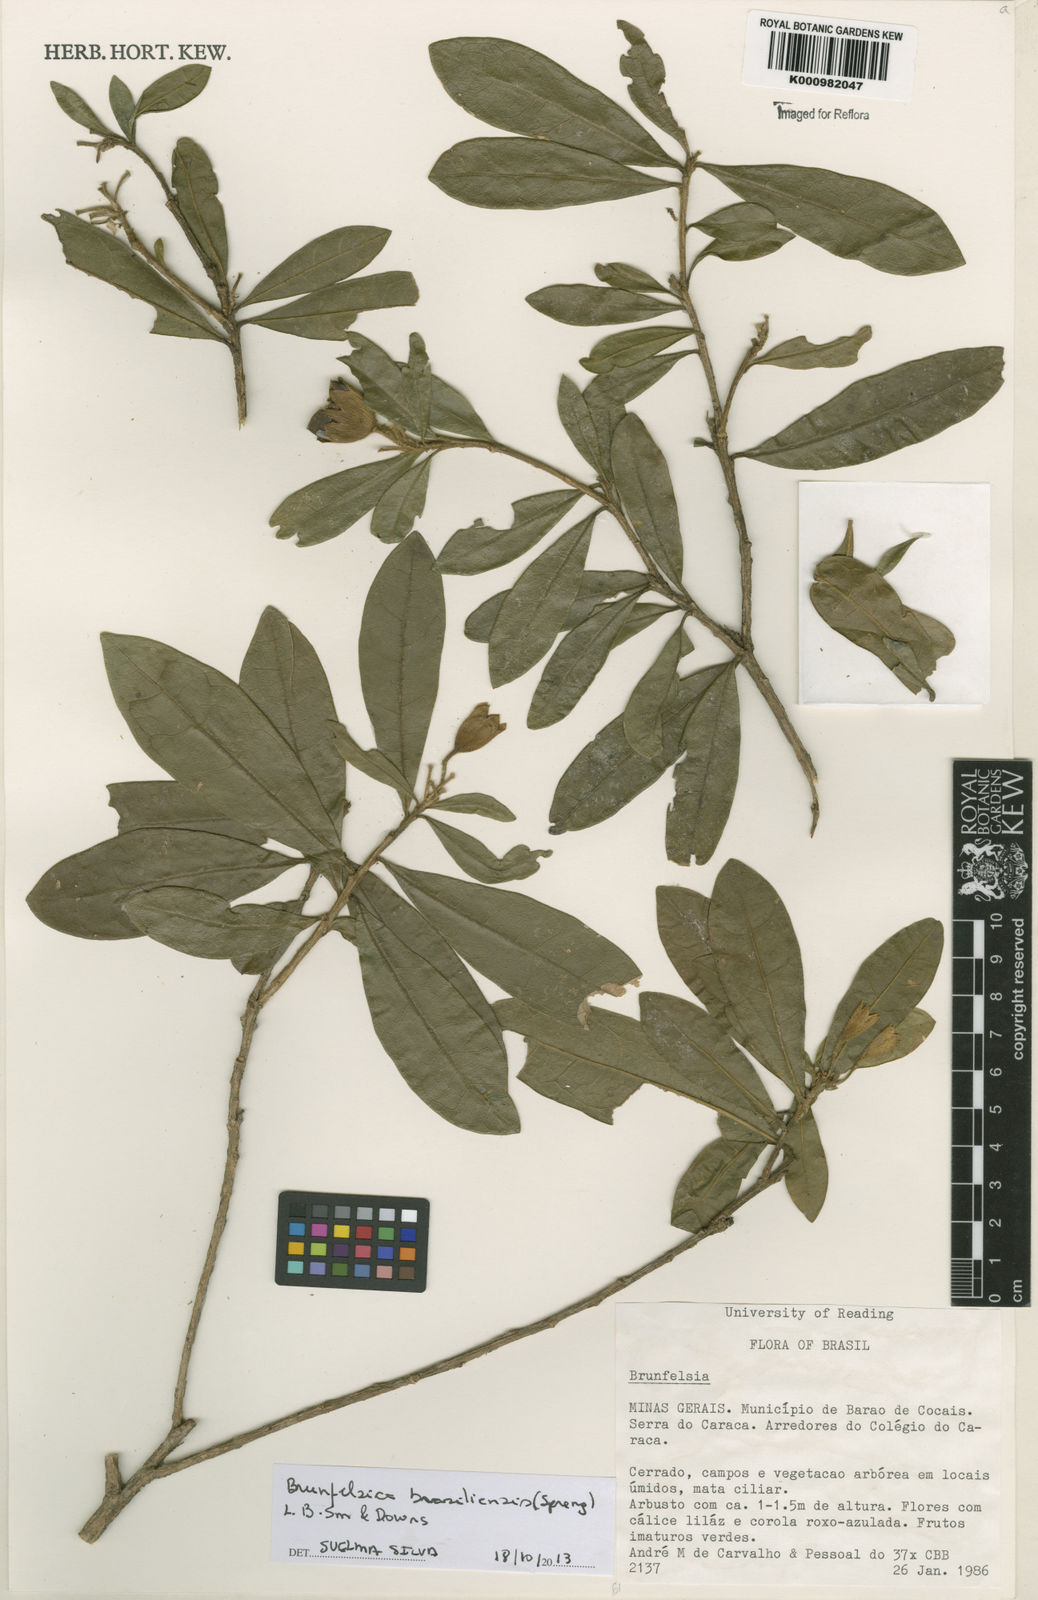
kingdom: Plantae
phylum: Tracheophyta
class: Magnoliopsida
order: Solanales
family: Solanaceae
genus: Brunfelsia
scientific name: Brunfelsia brasiliensis
